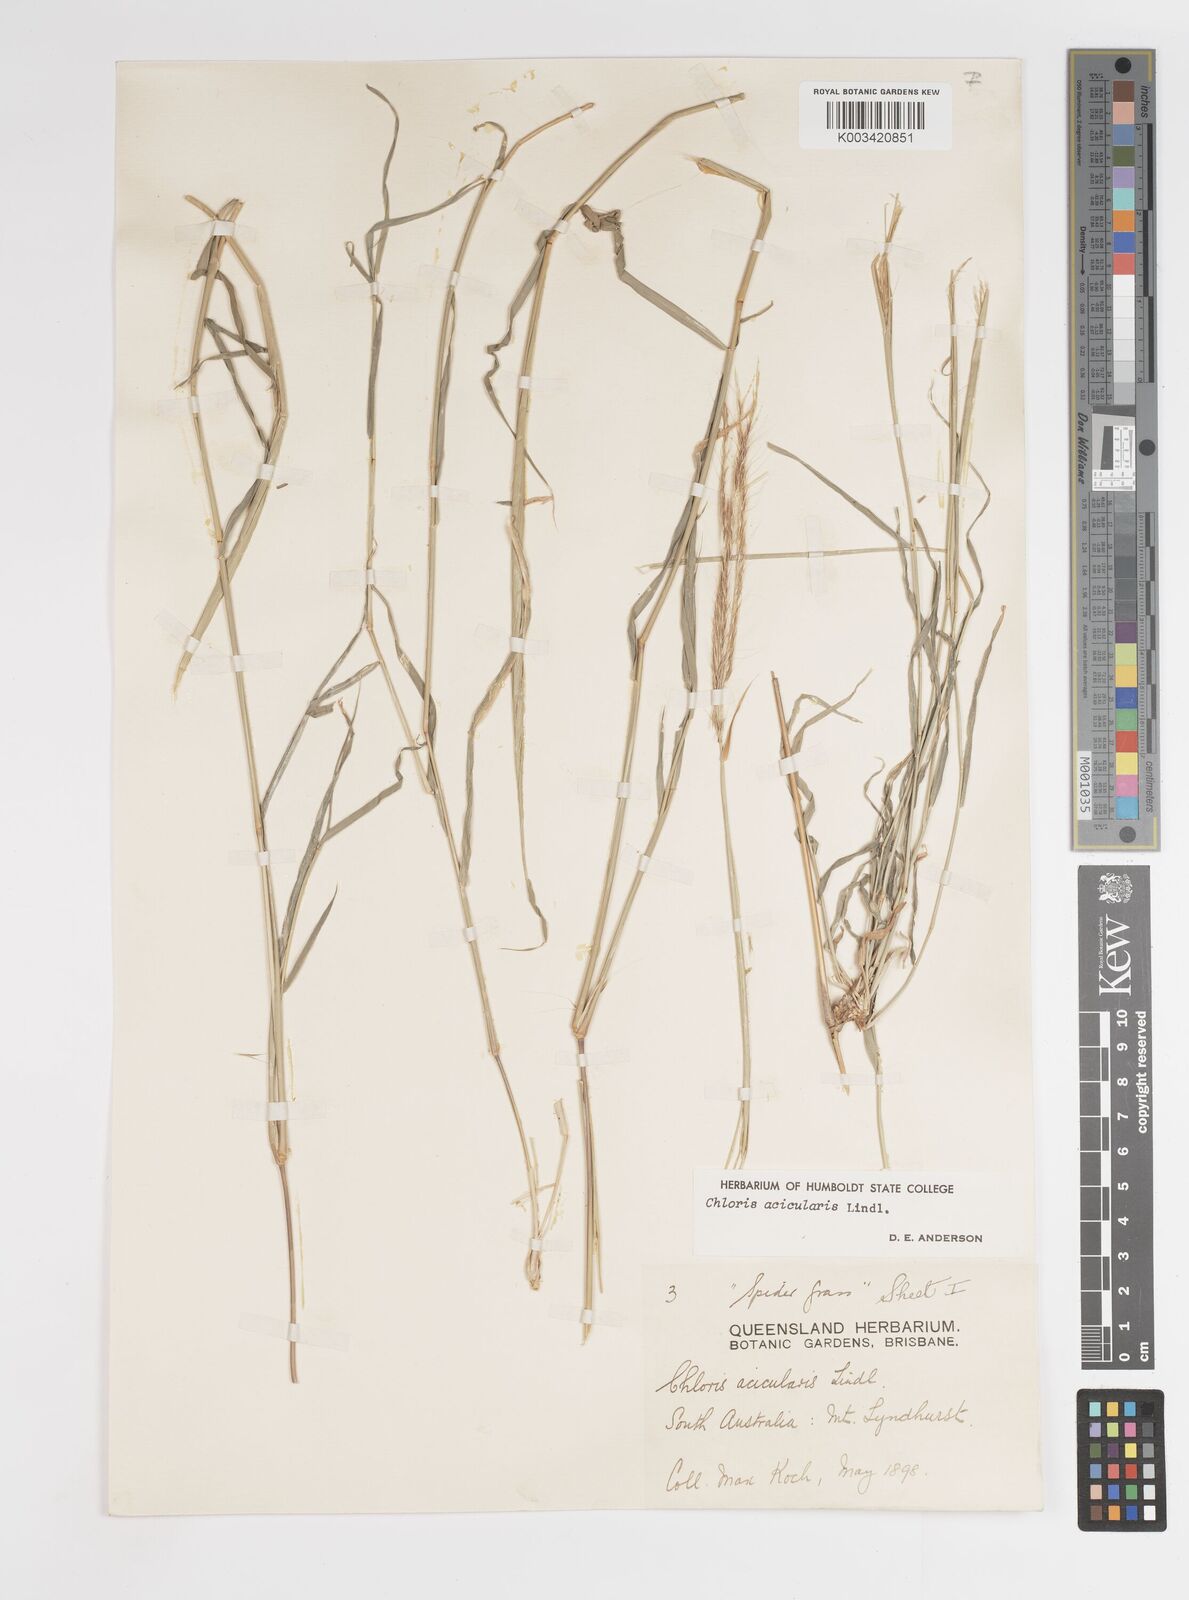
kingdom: Plantae
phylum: Tracheophyta
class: Liliopsida
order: Poales
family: Poaceae
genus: Enteropogon
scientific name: Enteropogon acicularis
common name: Curly windmill grass
